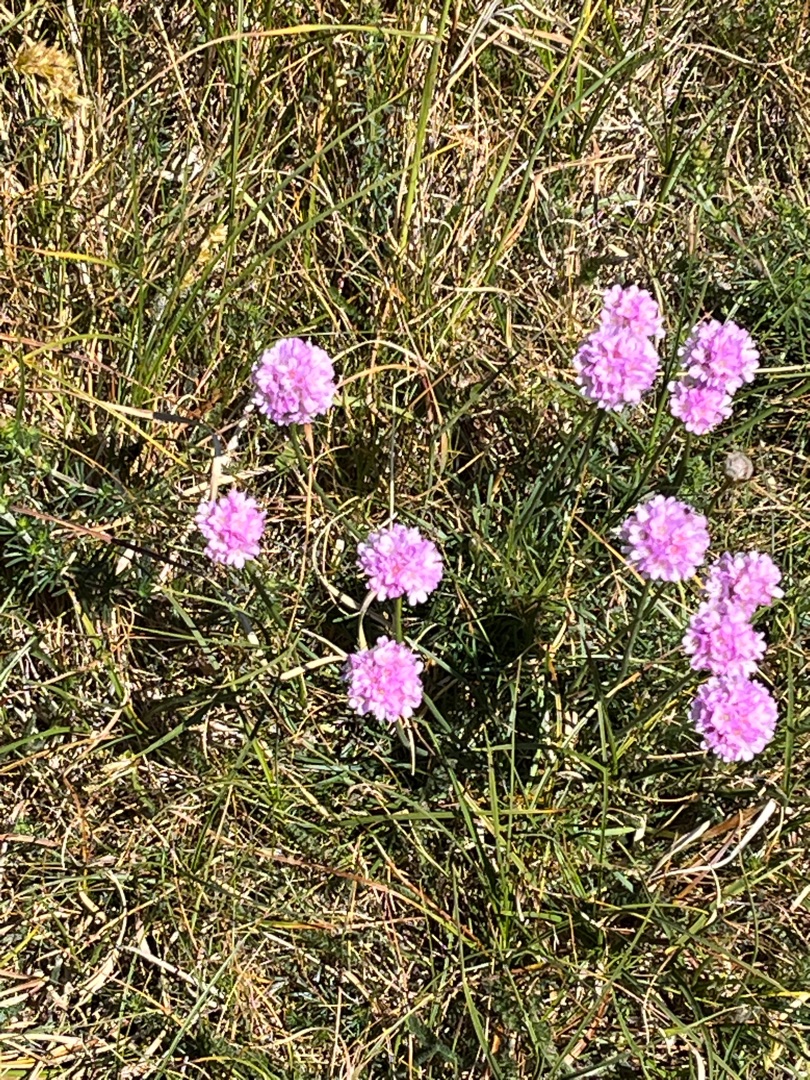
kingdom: Plantae
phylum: Tracheophyta
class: Magnoliopsida
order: Caryophyllales
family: Plumbaginaceae
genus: Armeria
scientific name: Armeria maritima
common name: Engelskgræs
